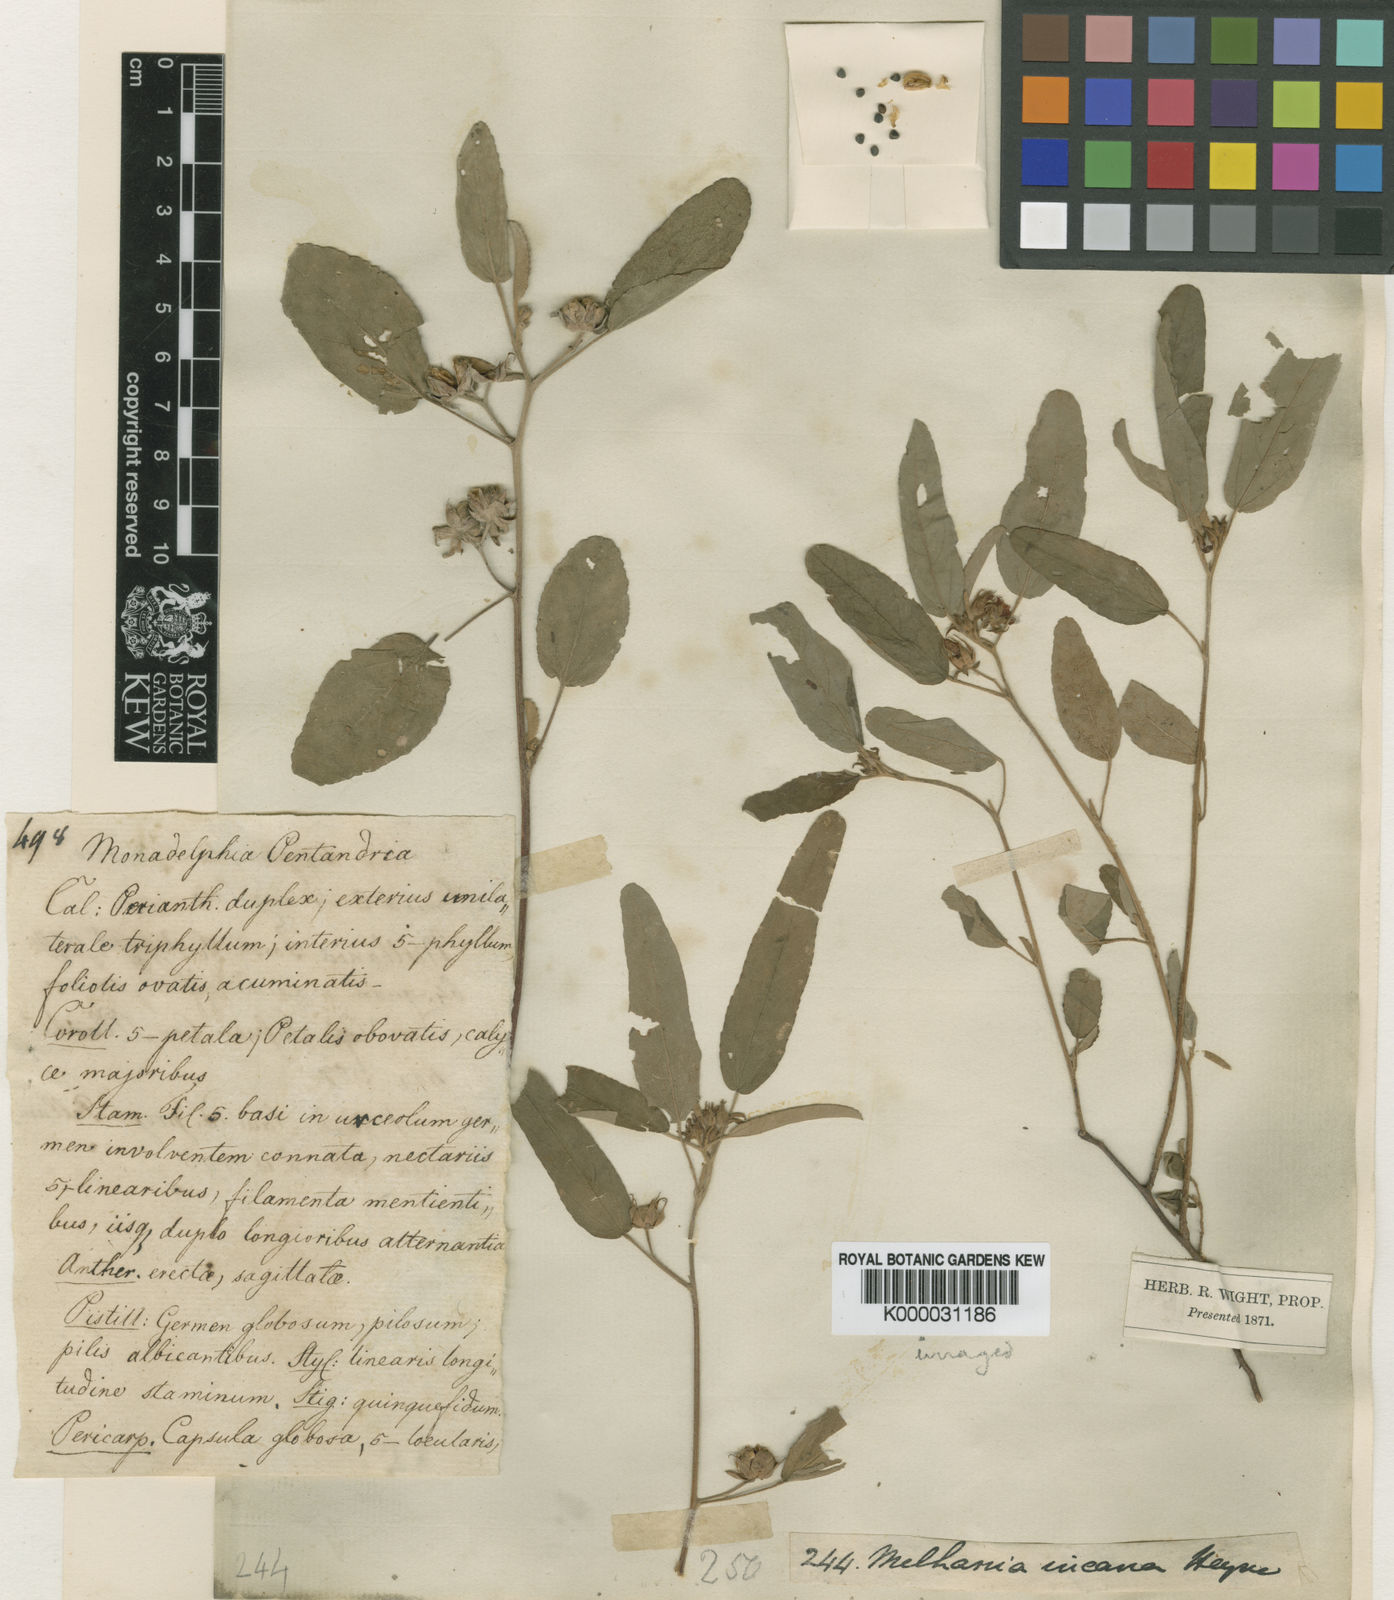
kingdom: Plantae
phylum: Tracheophyta
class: Magnoliopsida
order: Malvales
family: Malvaceae
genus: Melhania
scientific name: Melhania
